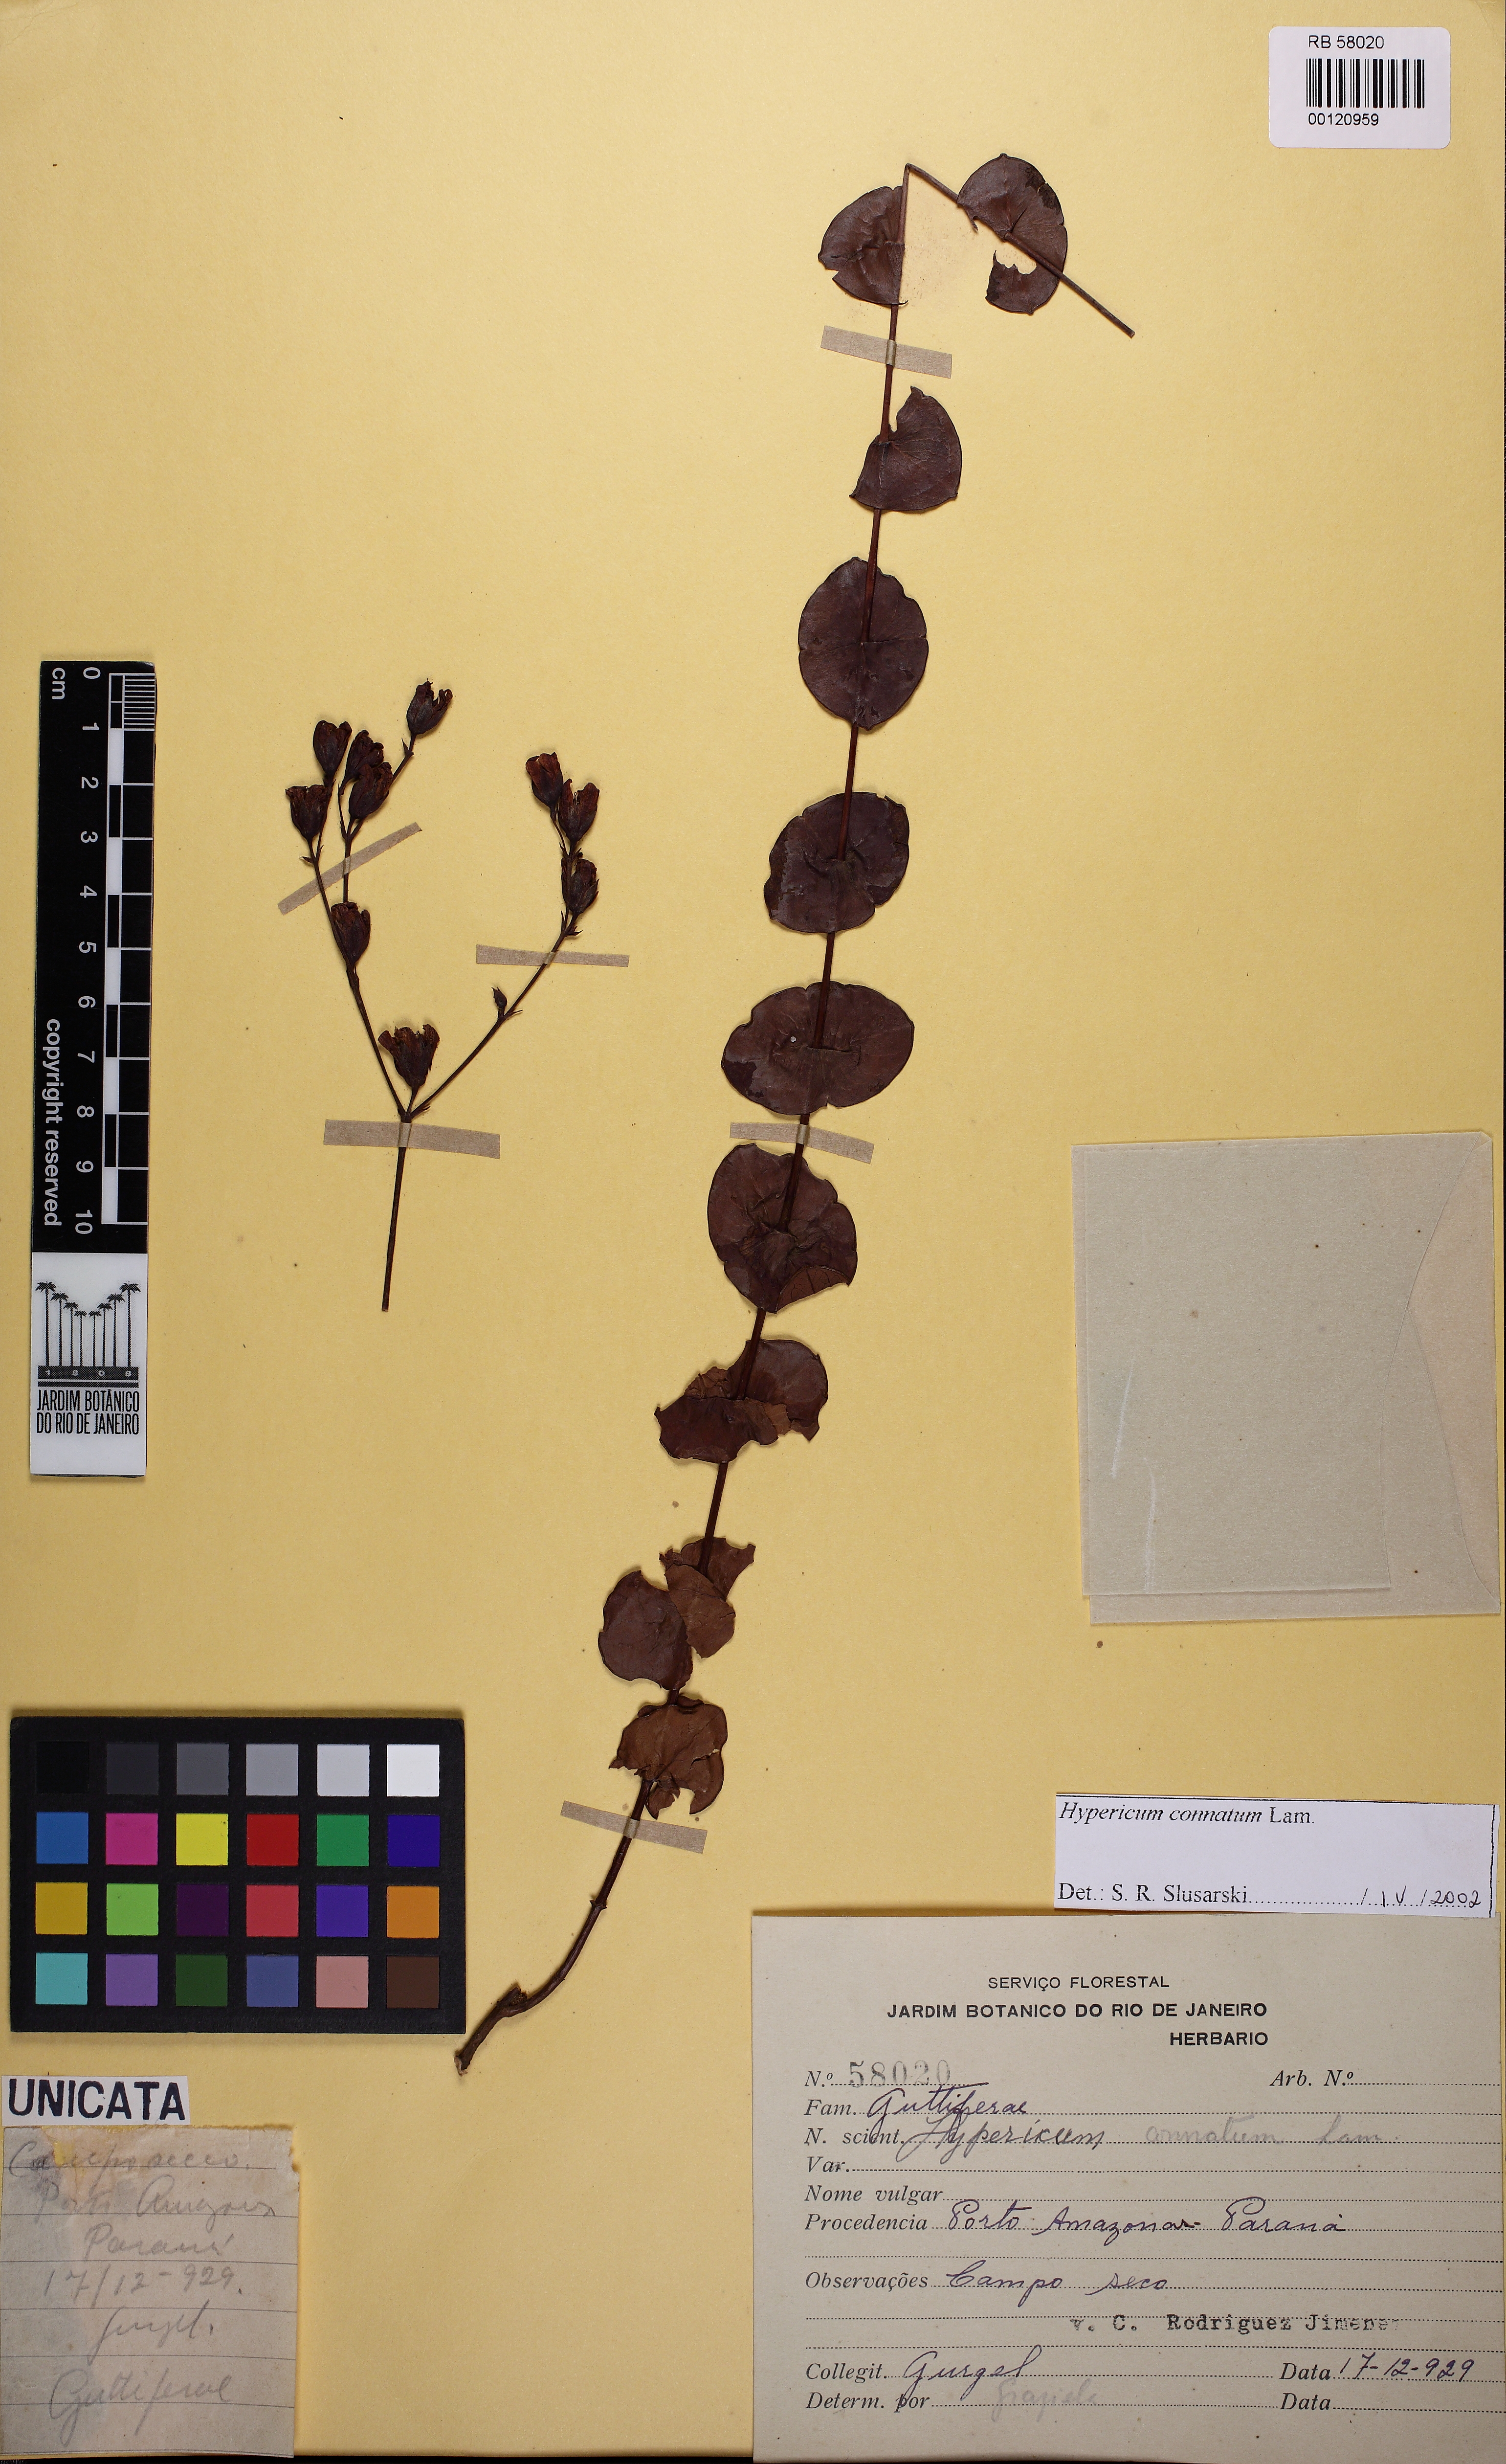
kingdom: Plantae
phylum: Tracheophyta
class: Magnoliopsida
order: Malpighiales
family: Hypericaceae
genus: Hypericum
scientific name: Hypericum connatum
